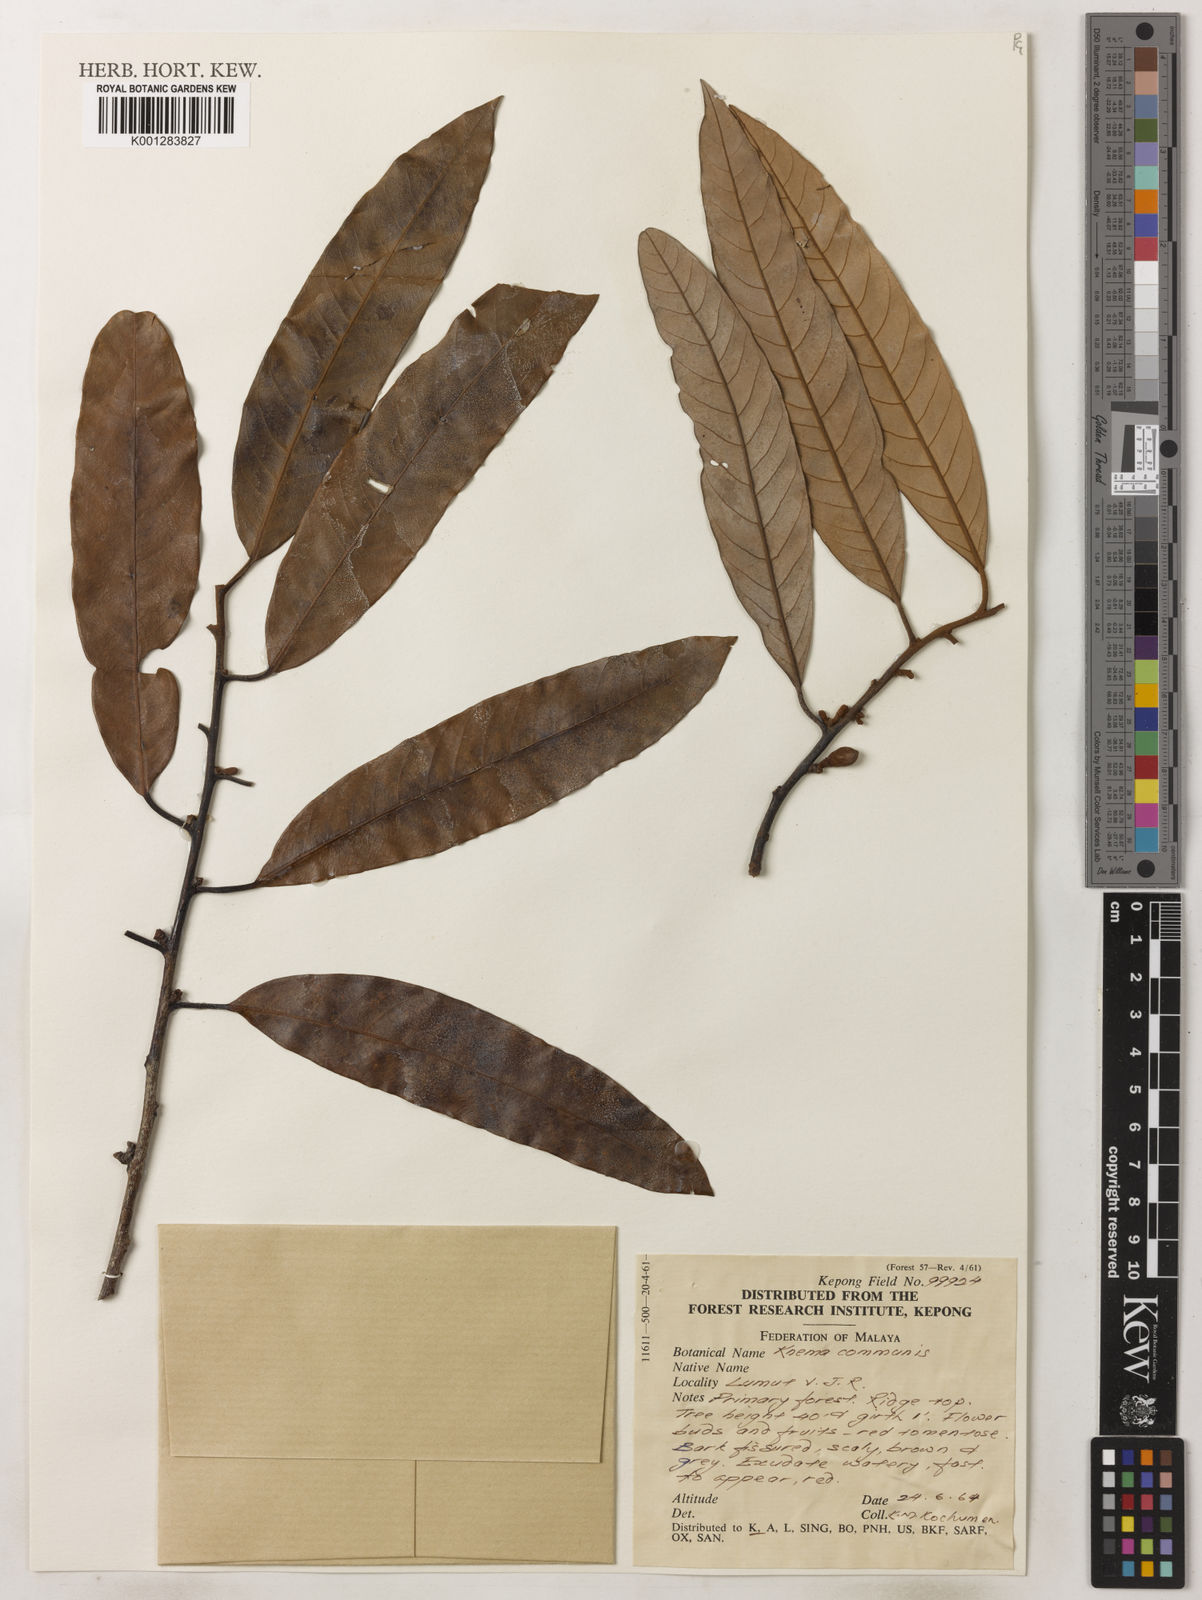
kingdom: Plantae
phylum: Tracheophyta
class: Magnoliopsida
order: Magnoliales
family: Myristicaceae
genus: Knema
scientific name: Knema communis
